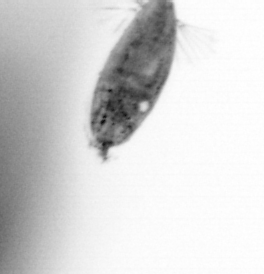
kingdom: Animalia
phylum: Arthropoda
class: Maxillopoda
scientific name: Maxillopoda
